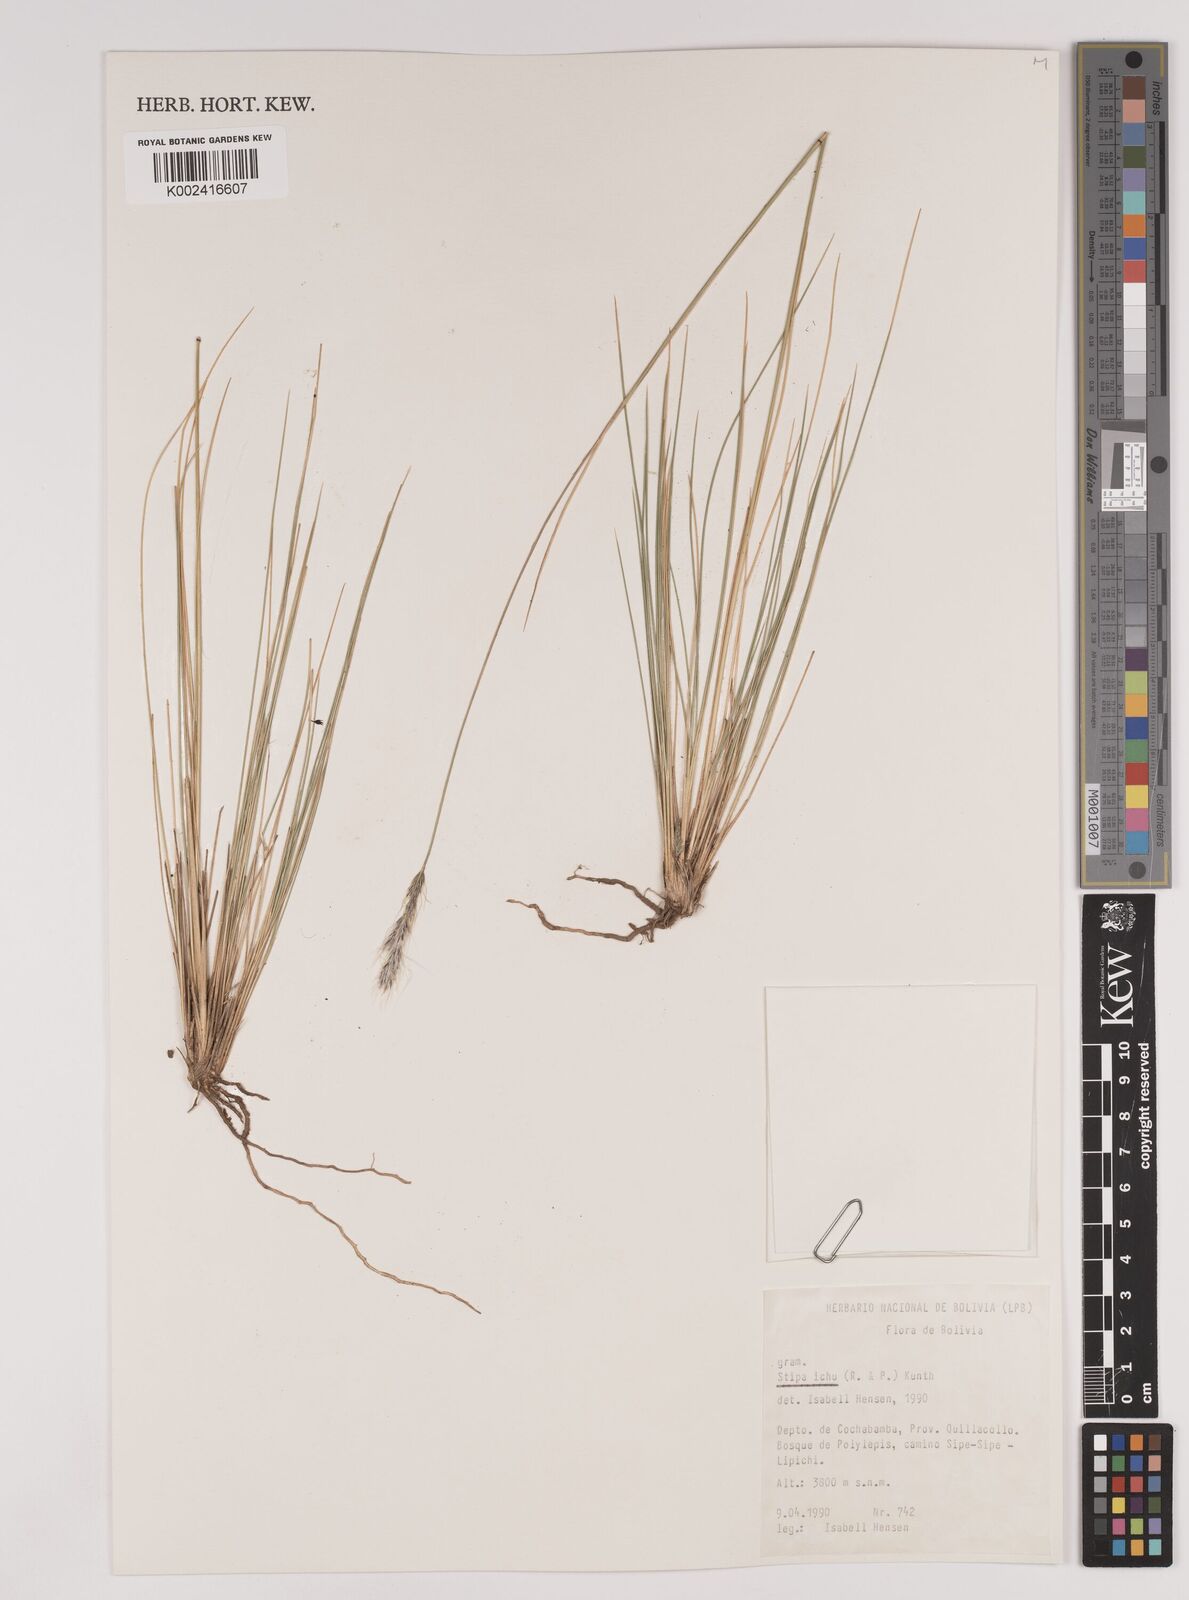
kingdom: Plantae
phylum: Tracheophyta
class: Liliopsida
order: Poales
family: Poaceae
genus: Jarava
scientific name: Jarava leptostachya
